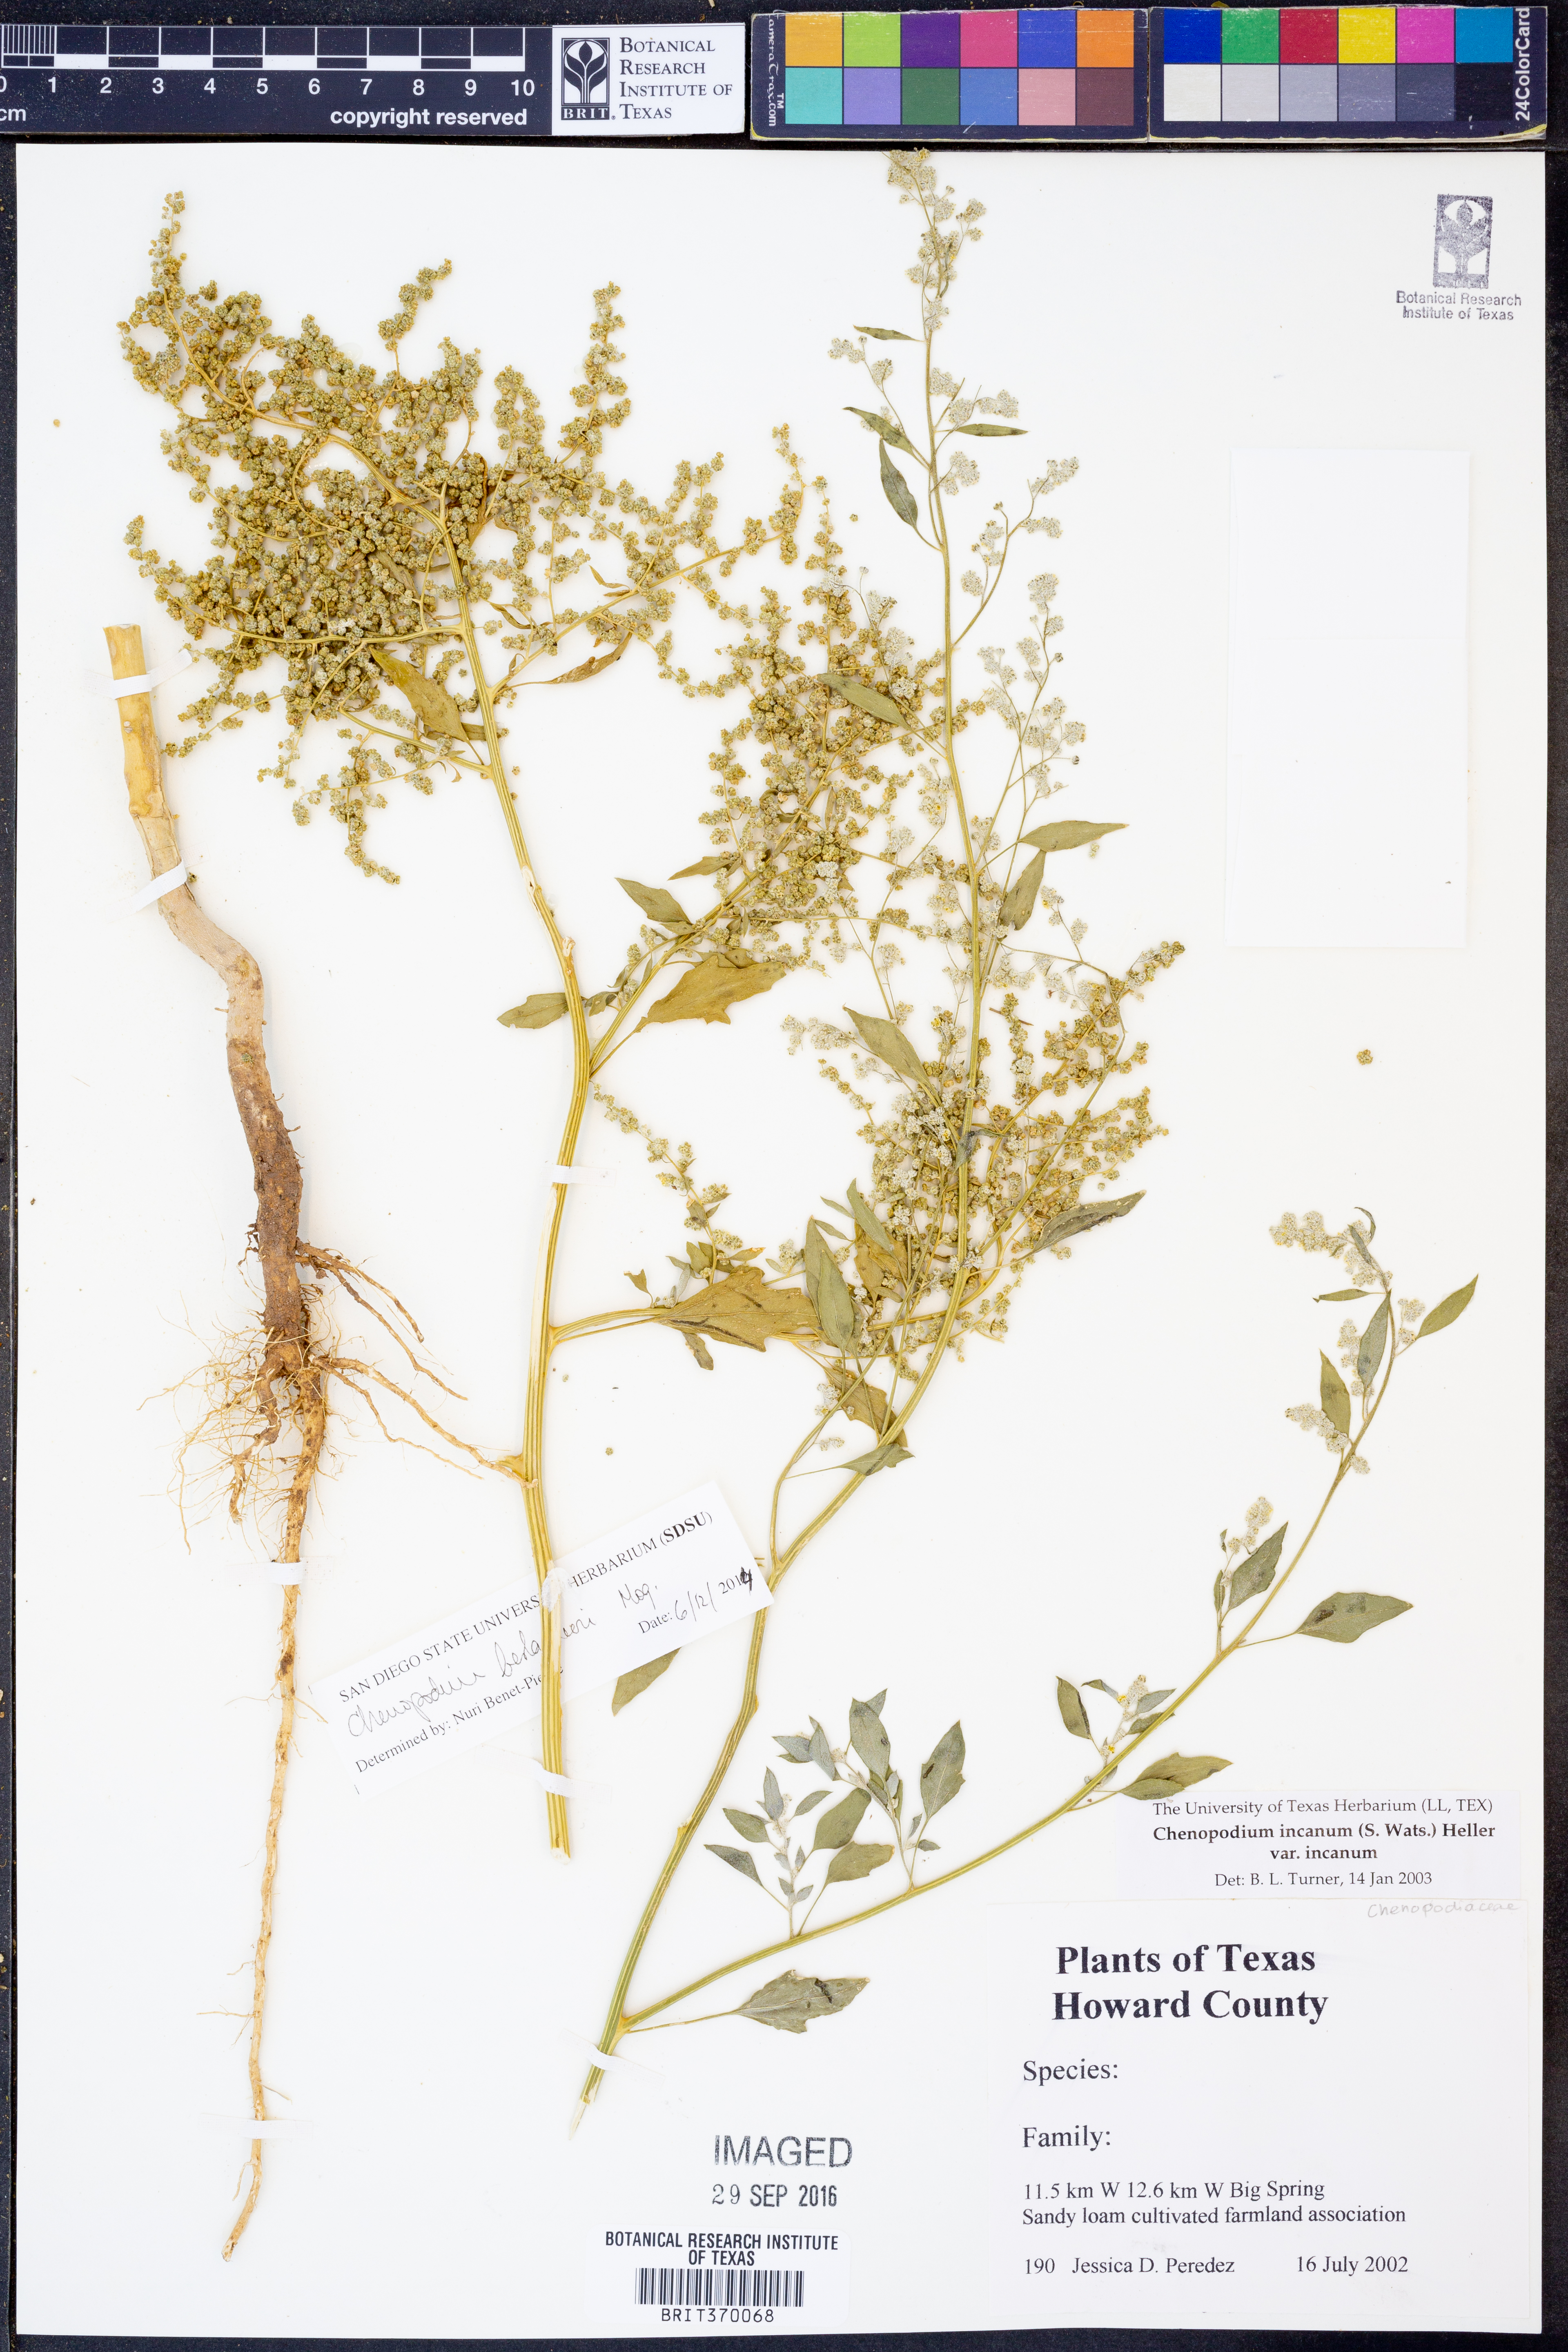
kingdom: Plantae
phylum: Tracheophyta
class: Magnoliopsida
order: Caryophyllales
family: Amaranthaceae
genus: Chenopodium
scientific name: Chenopodium berlandieri
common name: Pit-seed goosefoot
